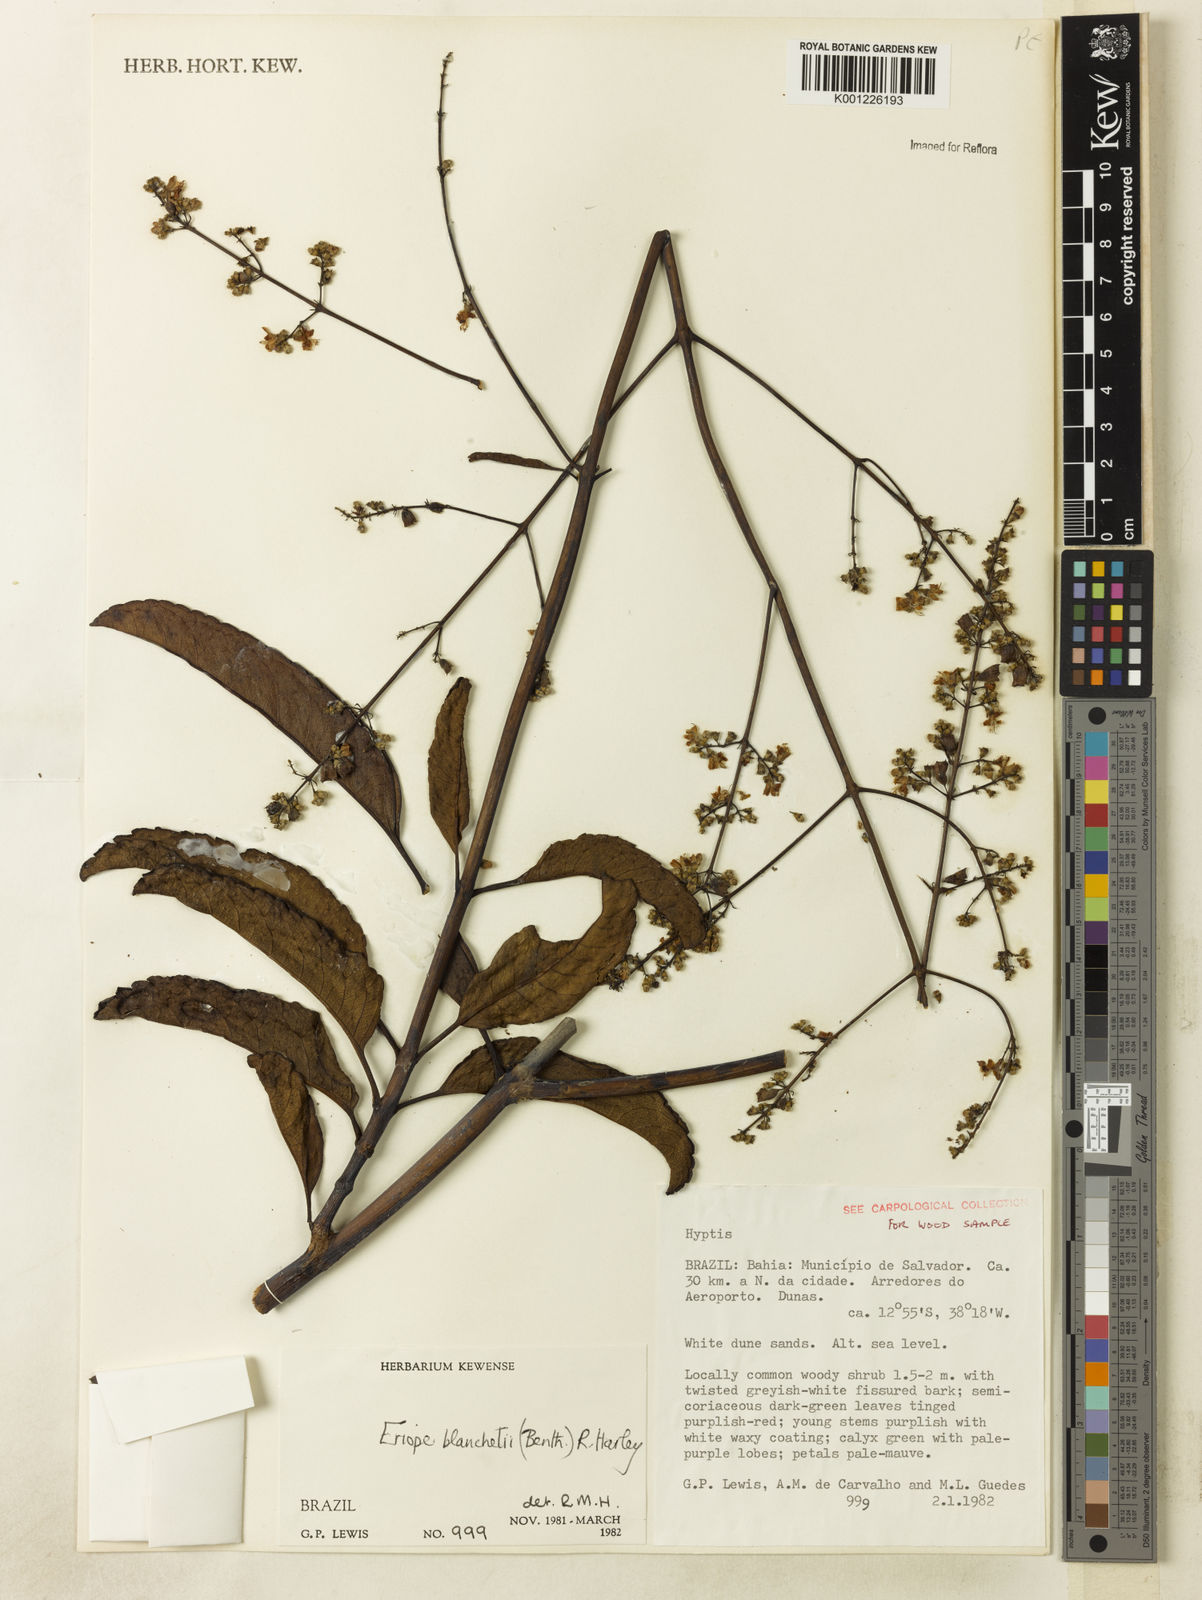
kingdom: Plantae
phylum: Tracheophyta
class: Magnoliopsida
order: Lamiales
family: Lamiaceae
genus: Eriope
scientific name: Eriope blanchetii
